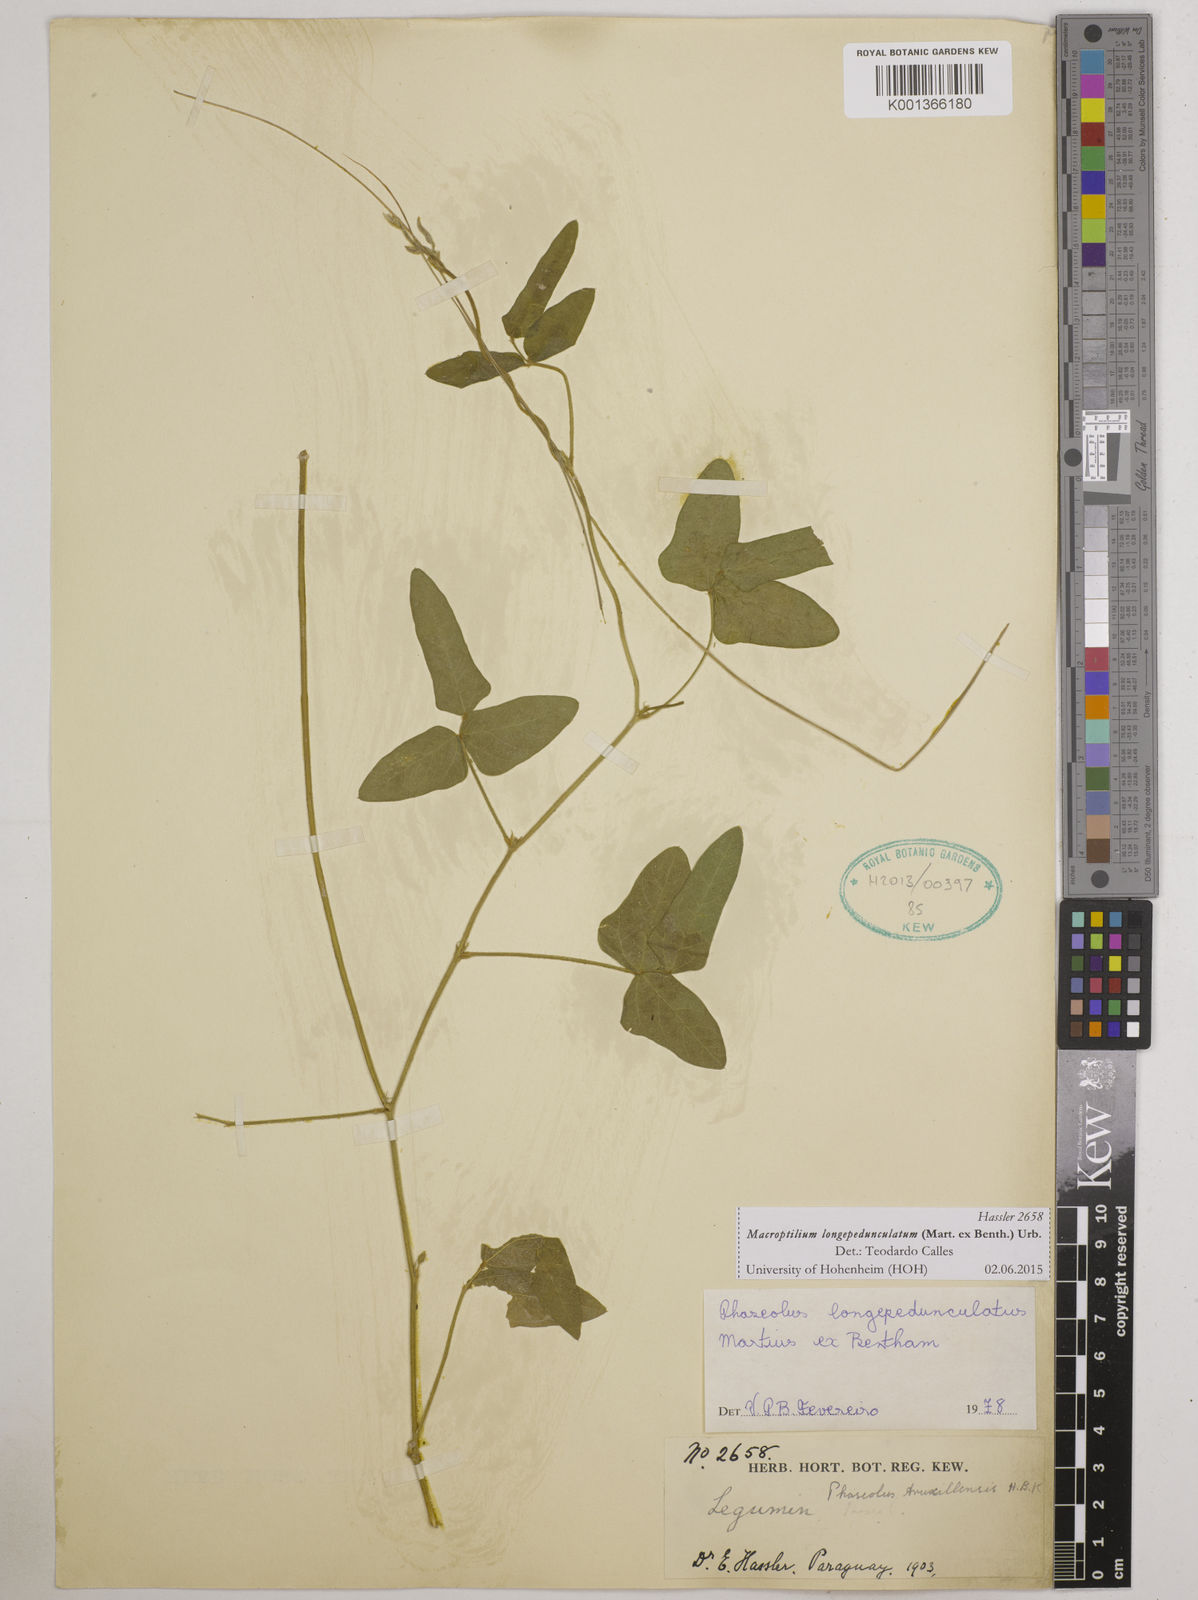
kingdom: Plantae
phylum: Tracheophyta
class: Magnoliopsida
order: Fabales
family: Fabaceae
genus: Macroptilium
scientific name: Macroptilium longepedunculatum
